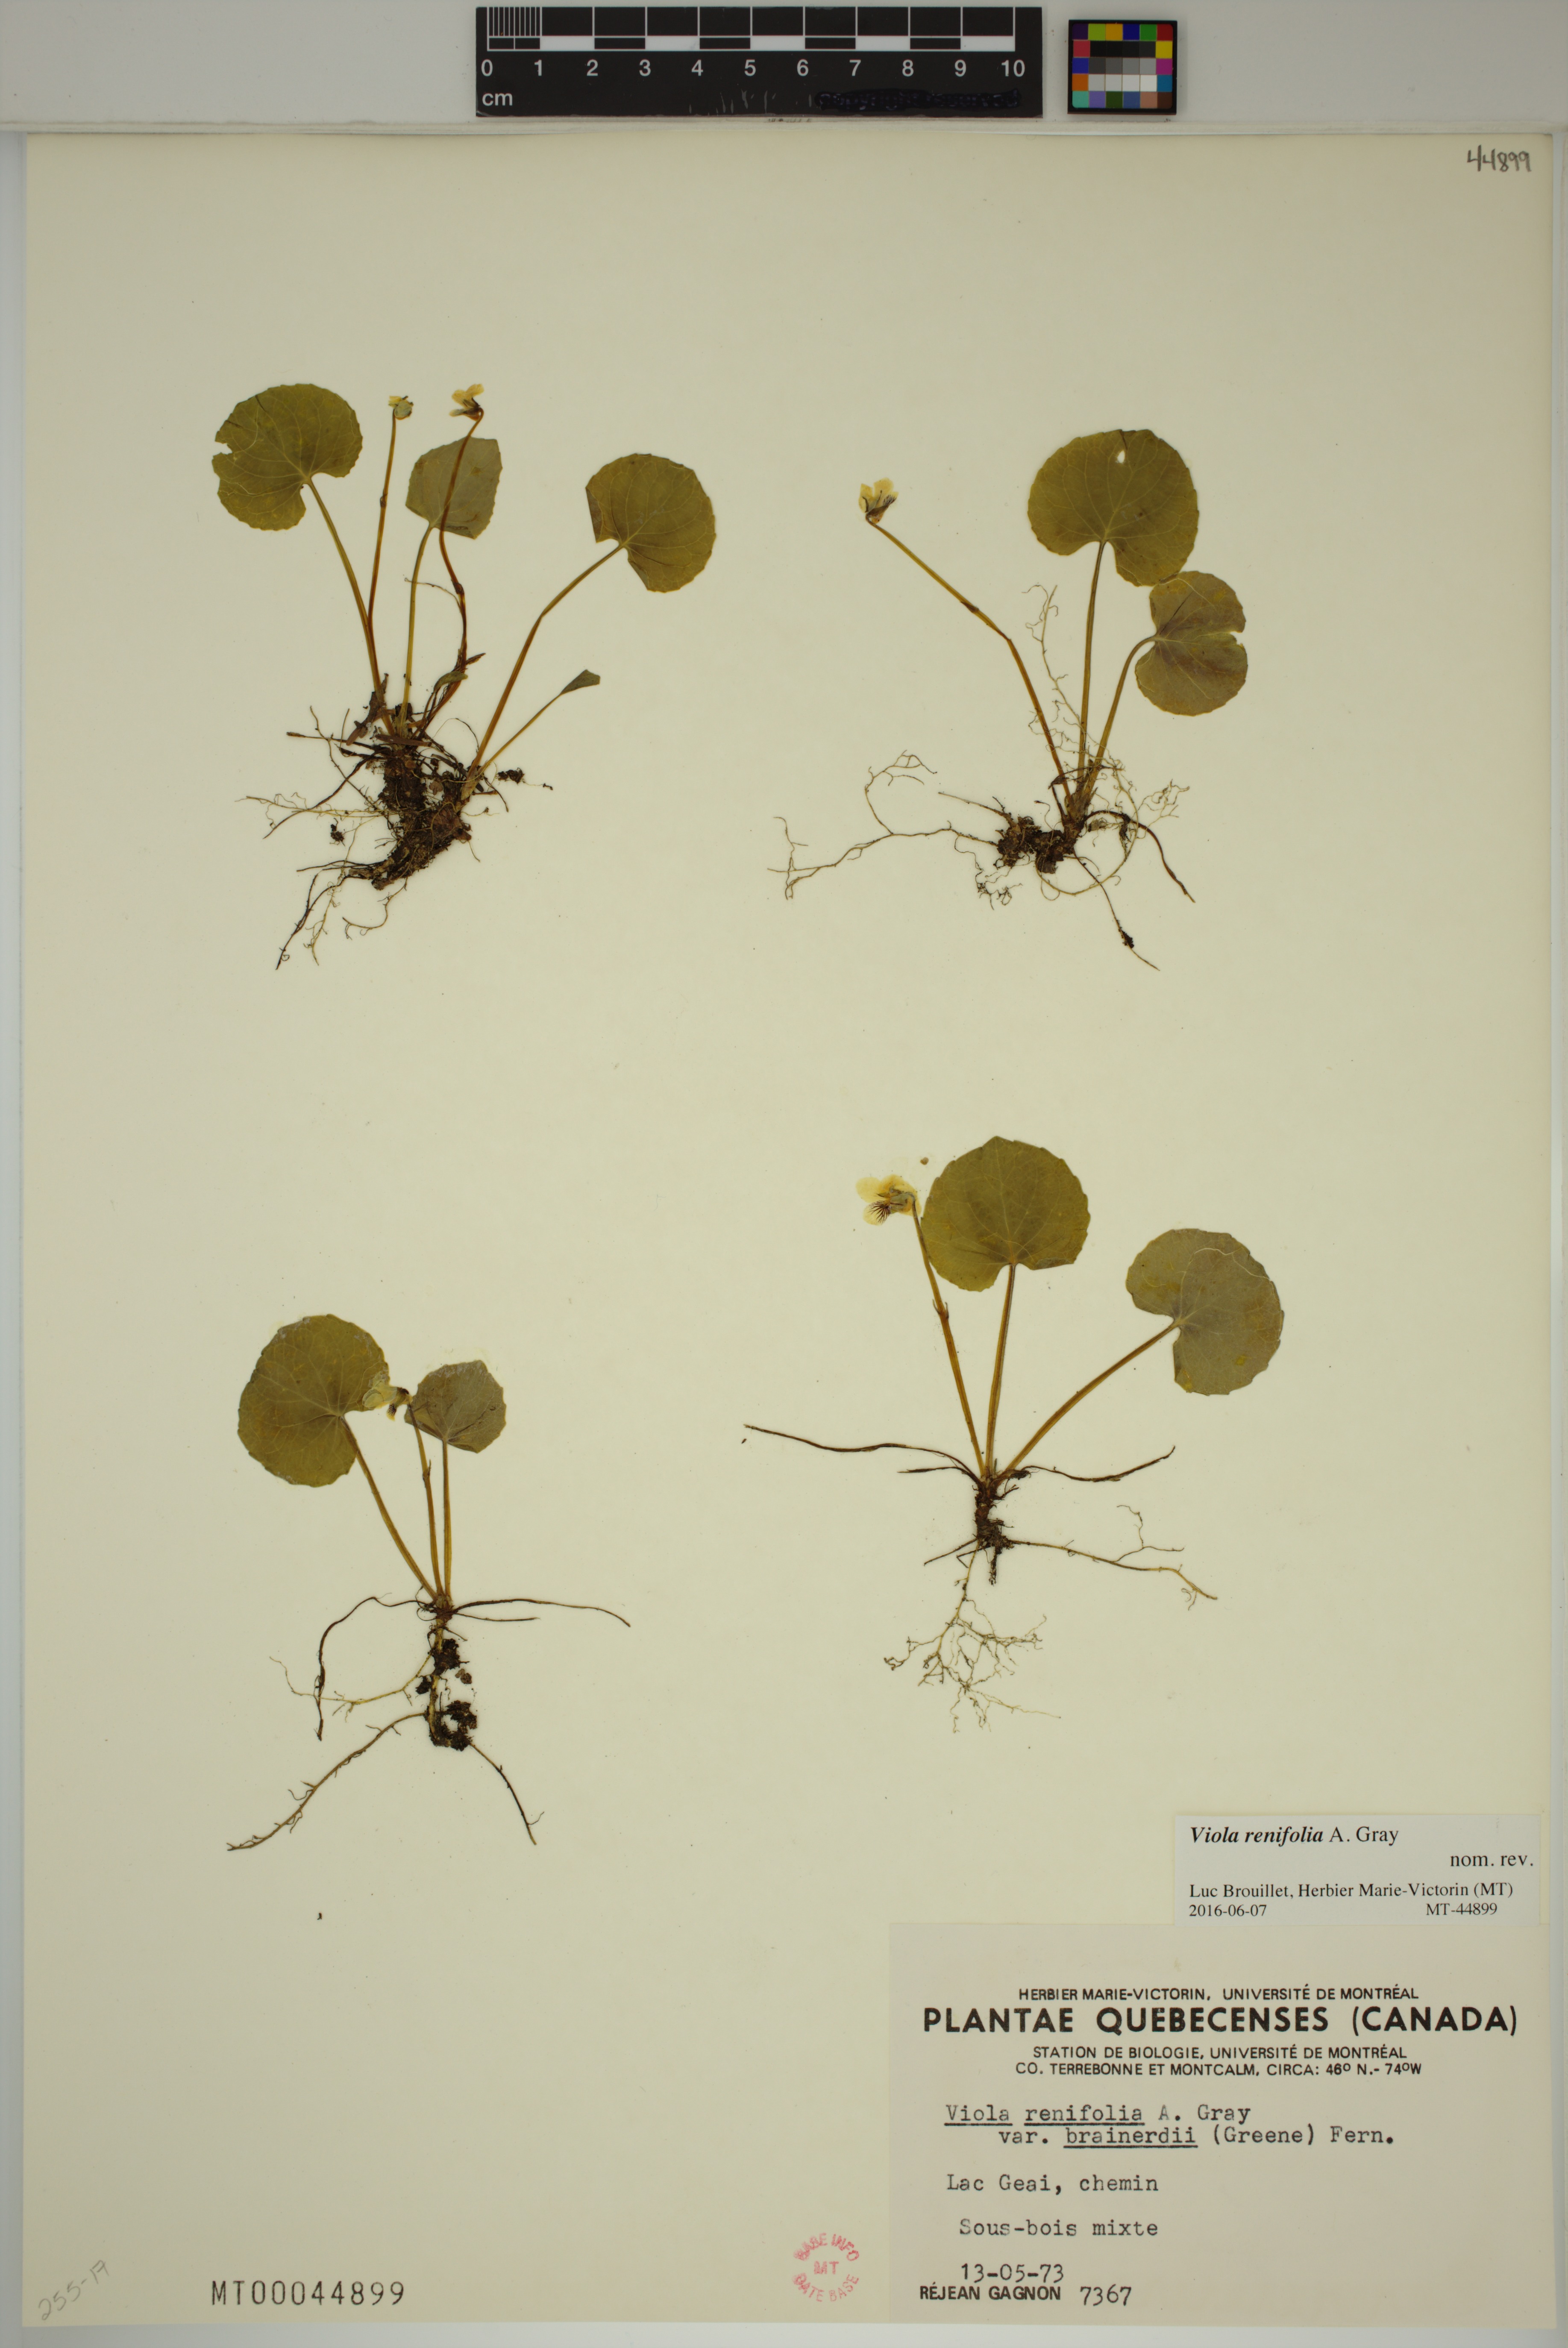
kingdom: Plantae
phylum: Tracheophyta
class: Magnoliopsida
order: Malpighiales
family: Violaceae
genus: Viola
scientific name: Viola renifolia
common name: Kidney-leaf violet
